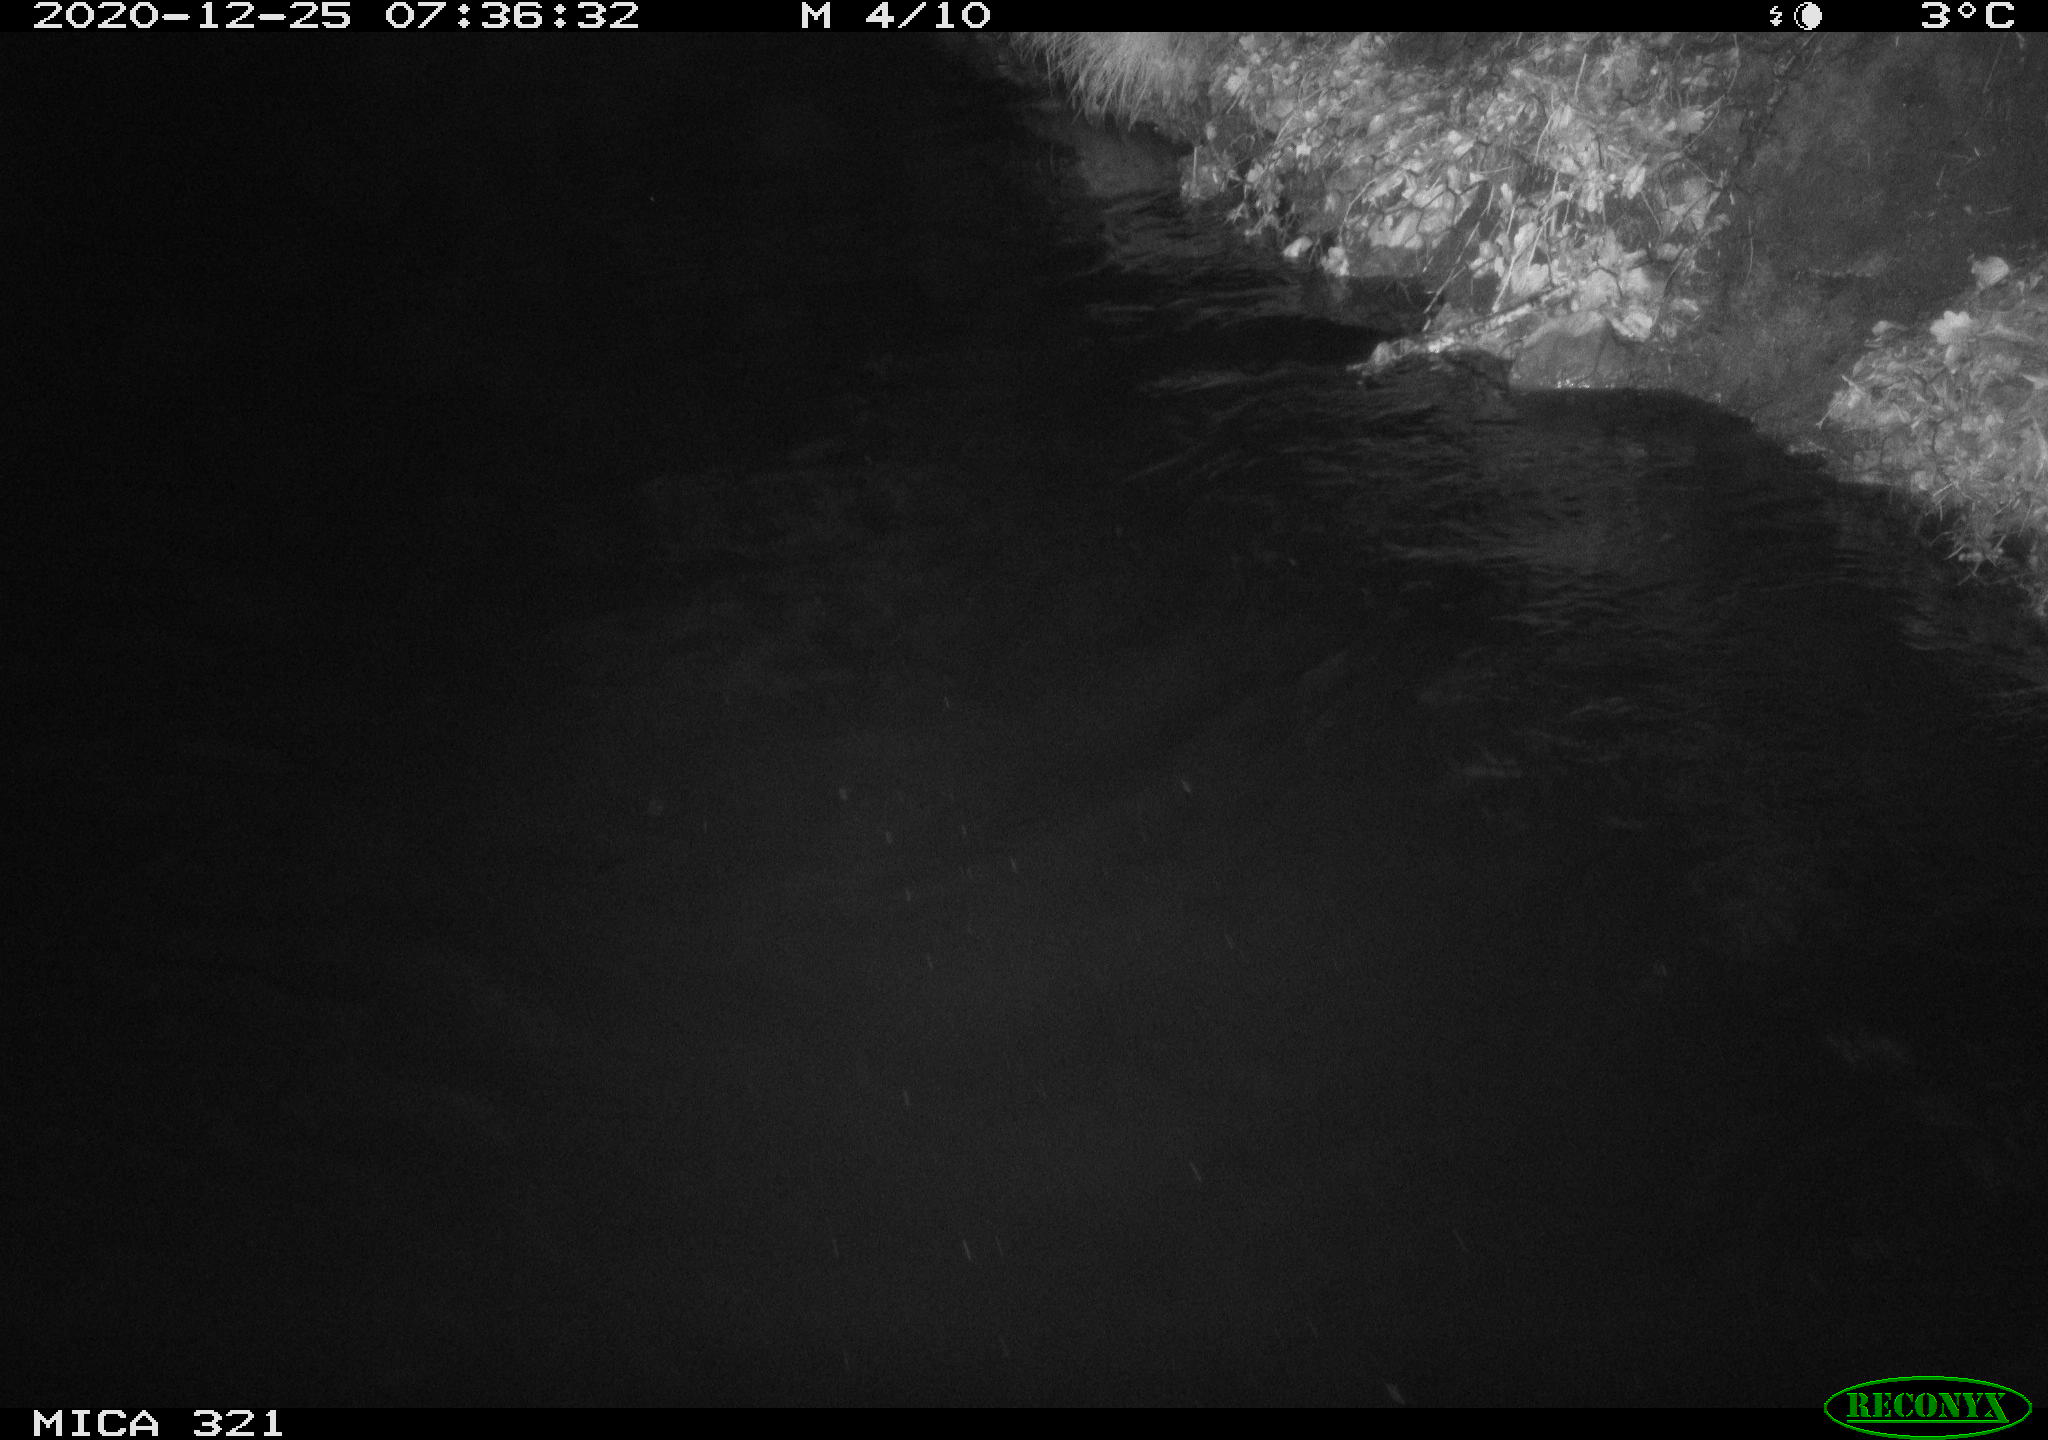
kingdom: Animalia
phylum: Chordata
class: Aves
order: Anseriformes
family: Anatidae
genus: Anas
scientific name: Anas platyrhynchos
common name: Mallard
